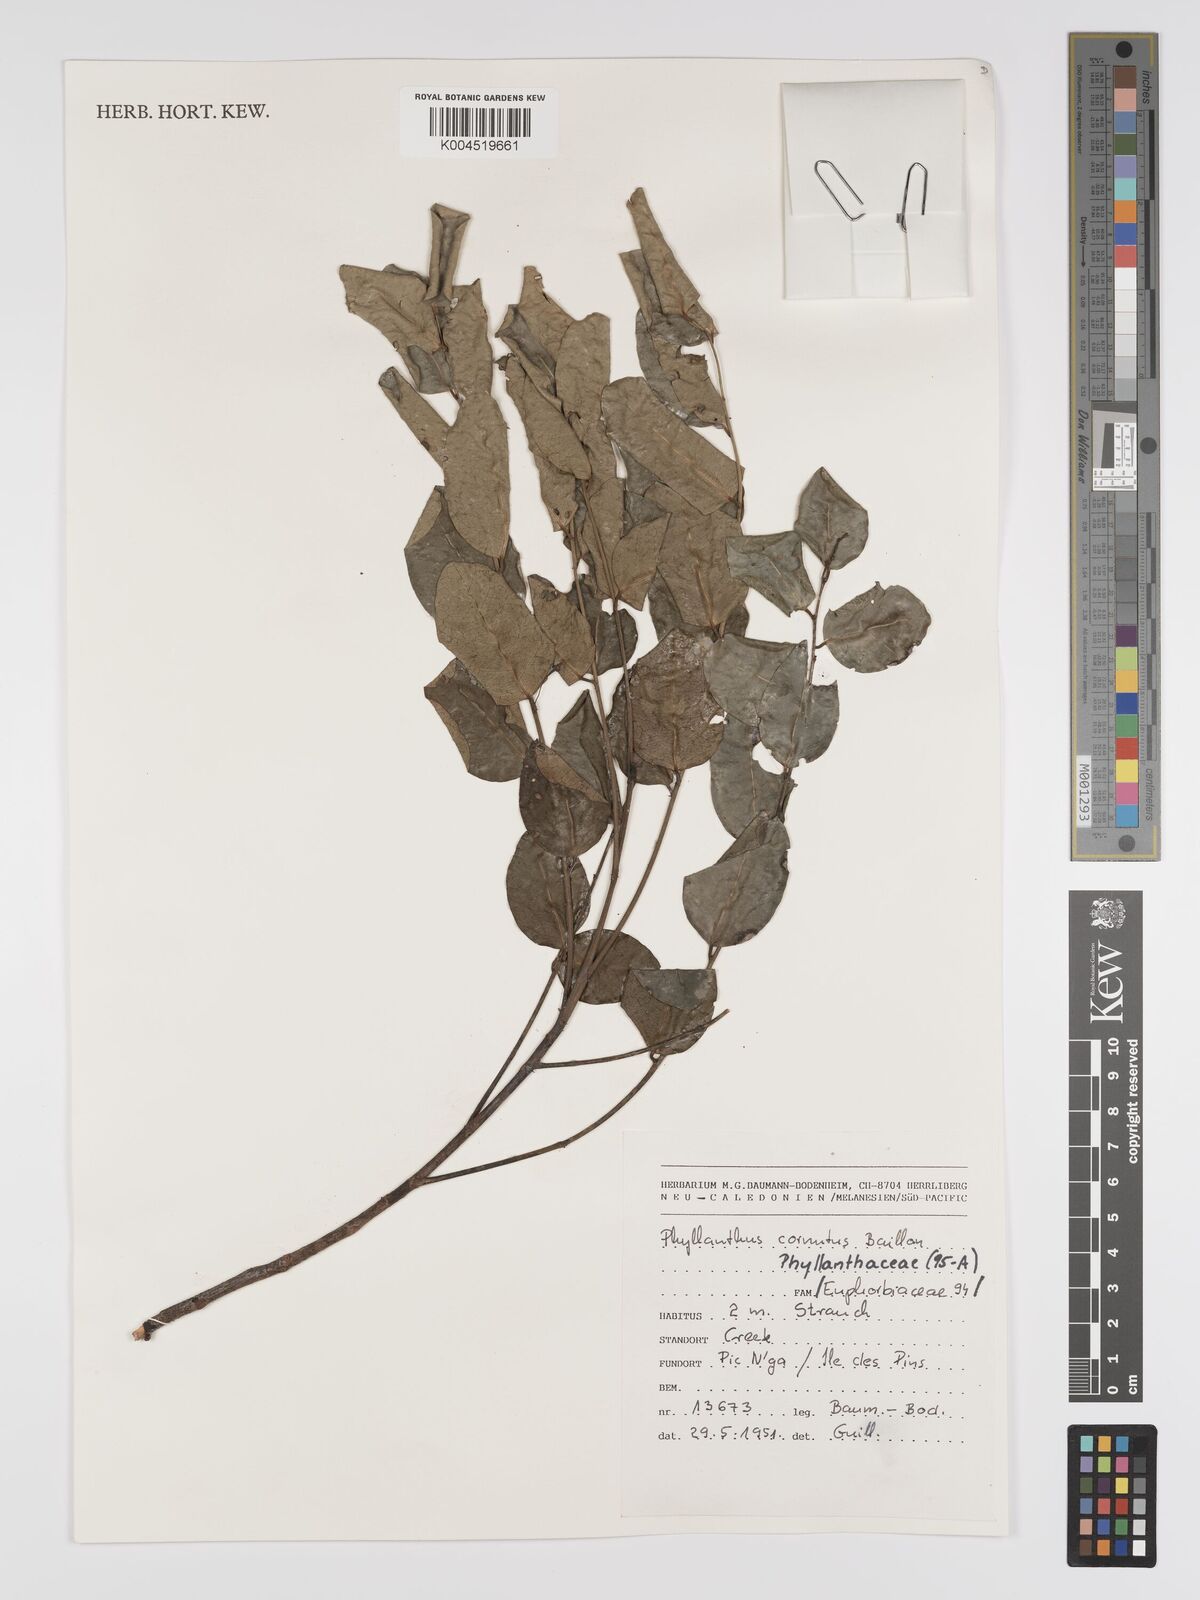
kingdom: Plantae
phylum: Tracheophyta
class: Magnoliopsida
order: Malpighiales
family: Phyllanthaceae
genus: Phyllanthus
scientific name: Phyllanthus cornutus
